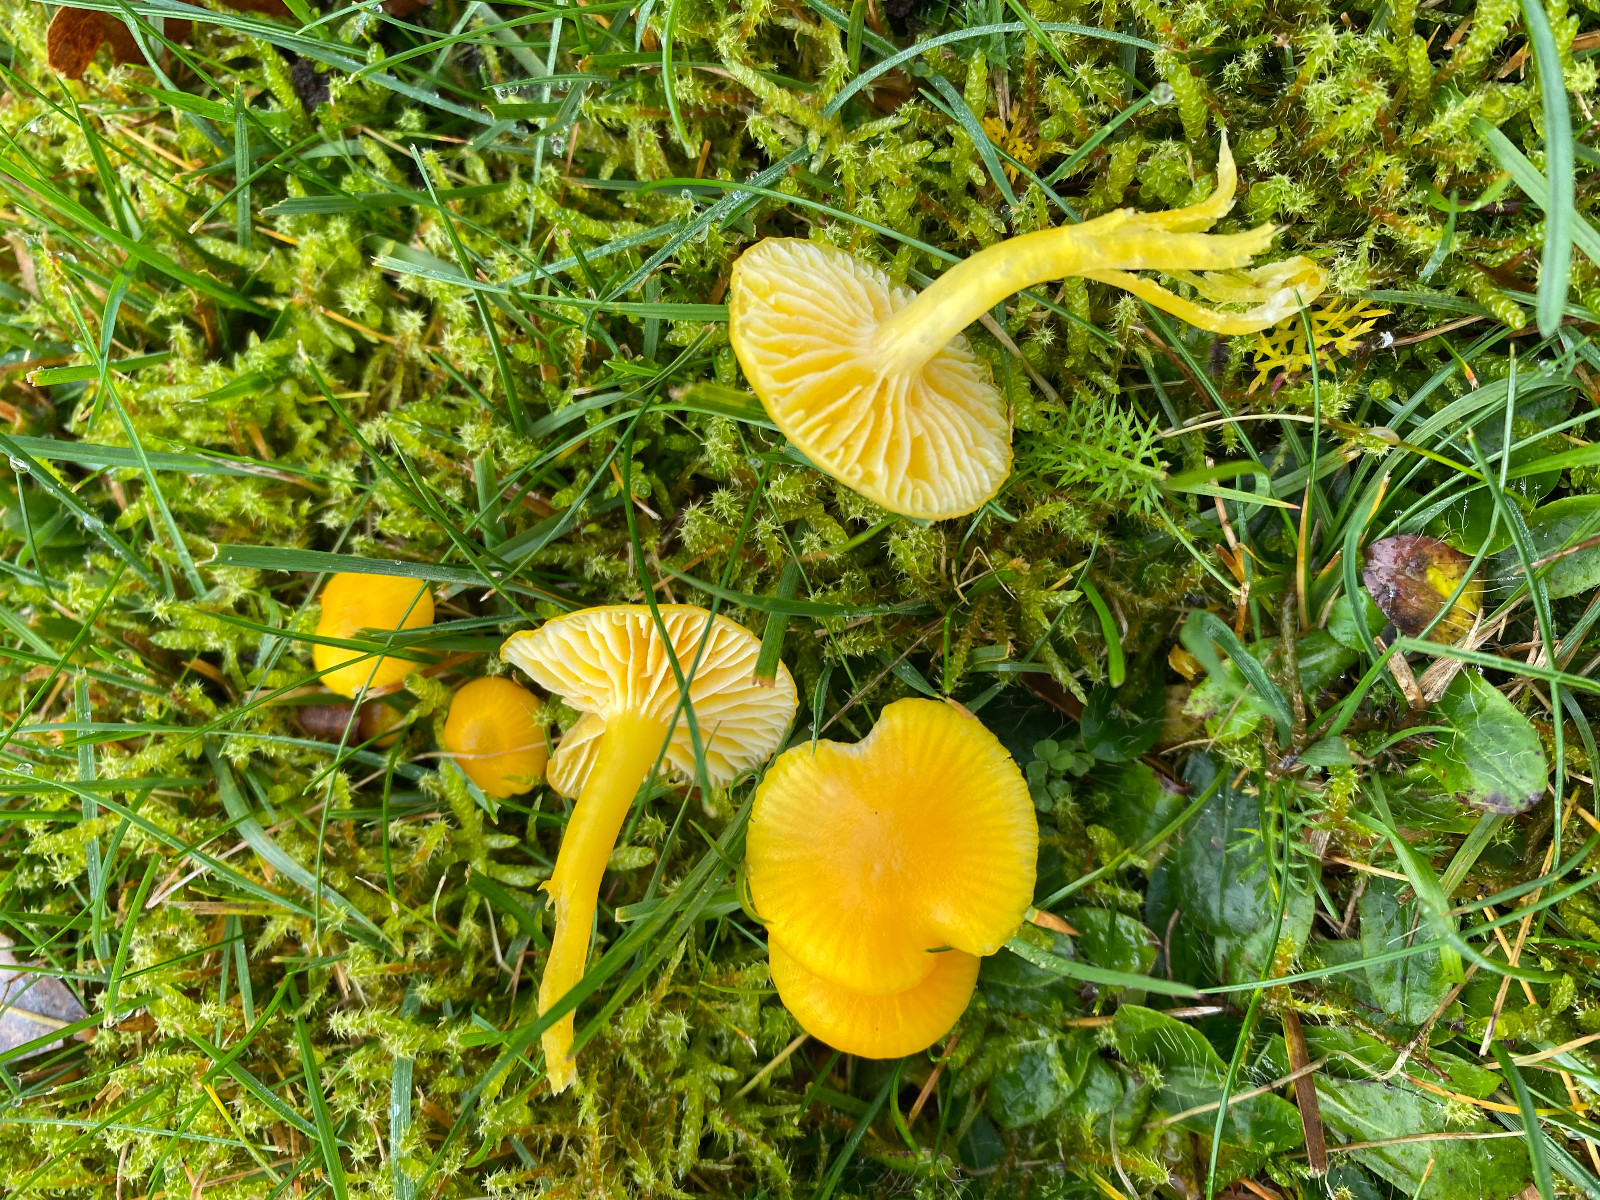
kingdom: Fungi
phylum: Basidiomycota
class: Agaricomycetes
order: Agaricales
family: Hygrophoraceae
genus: Hygrocybe
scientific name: Hygrocybe ceracea
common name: voksgul vokshat
